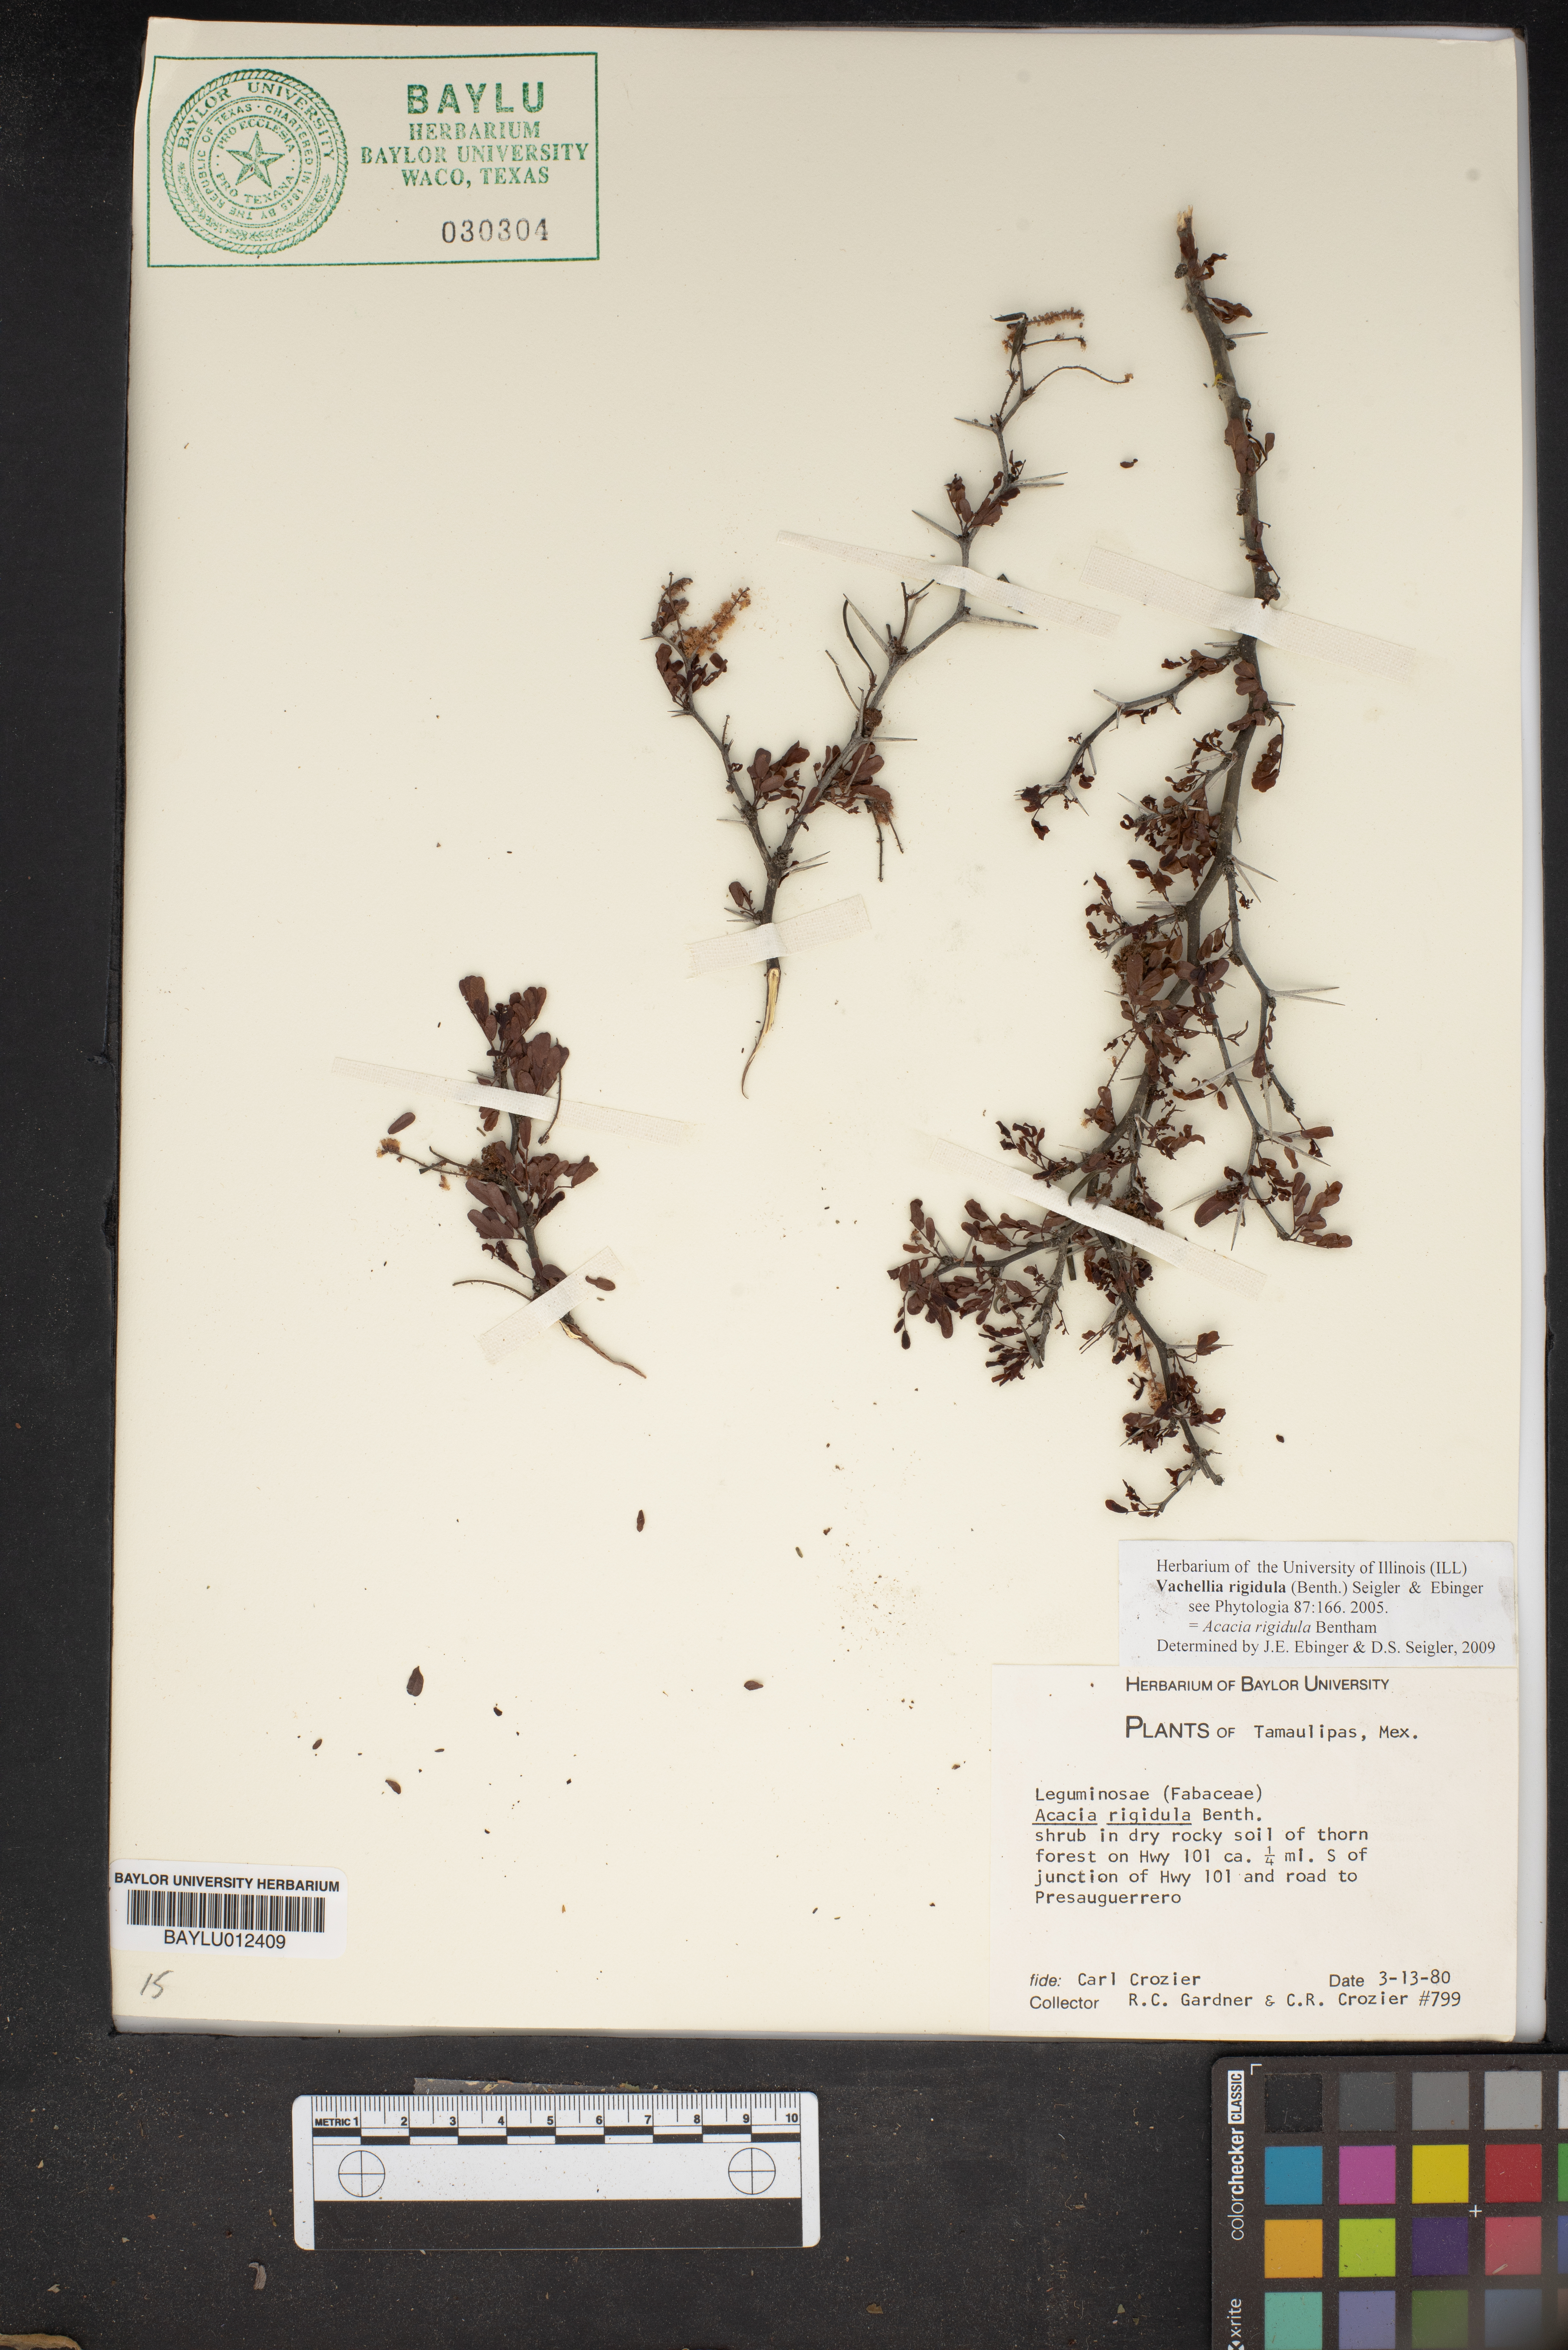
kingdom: Plantae
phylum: Tracheophyta
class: Magnoliopsida
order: Fabales
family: Fabaceae
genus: Vachellia
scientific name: Vachellia rigidula
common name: Blackbrush
